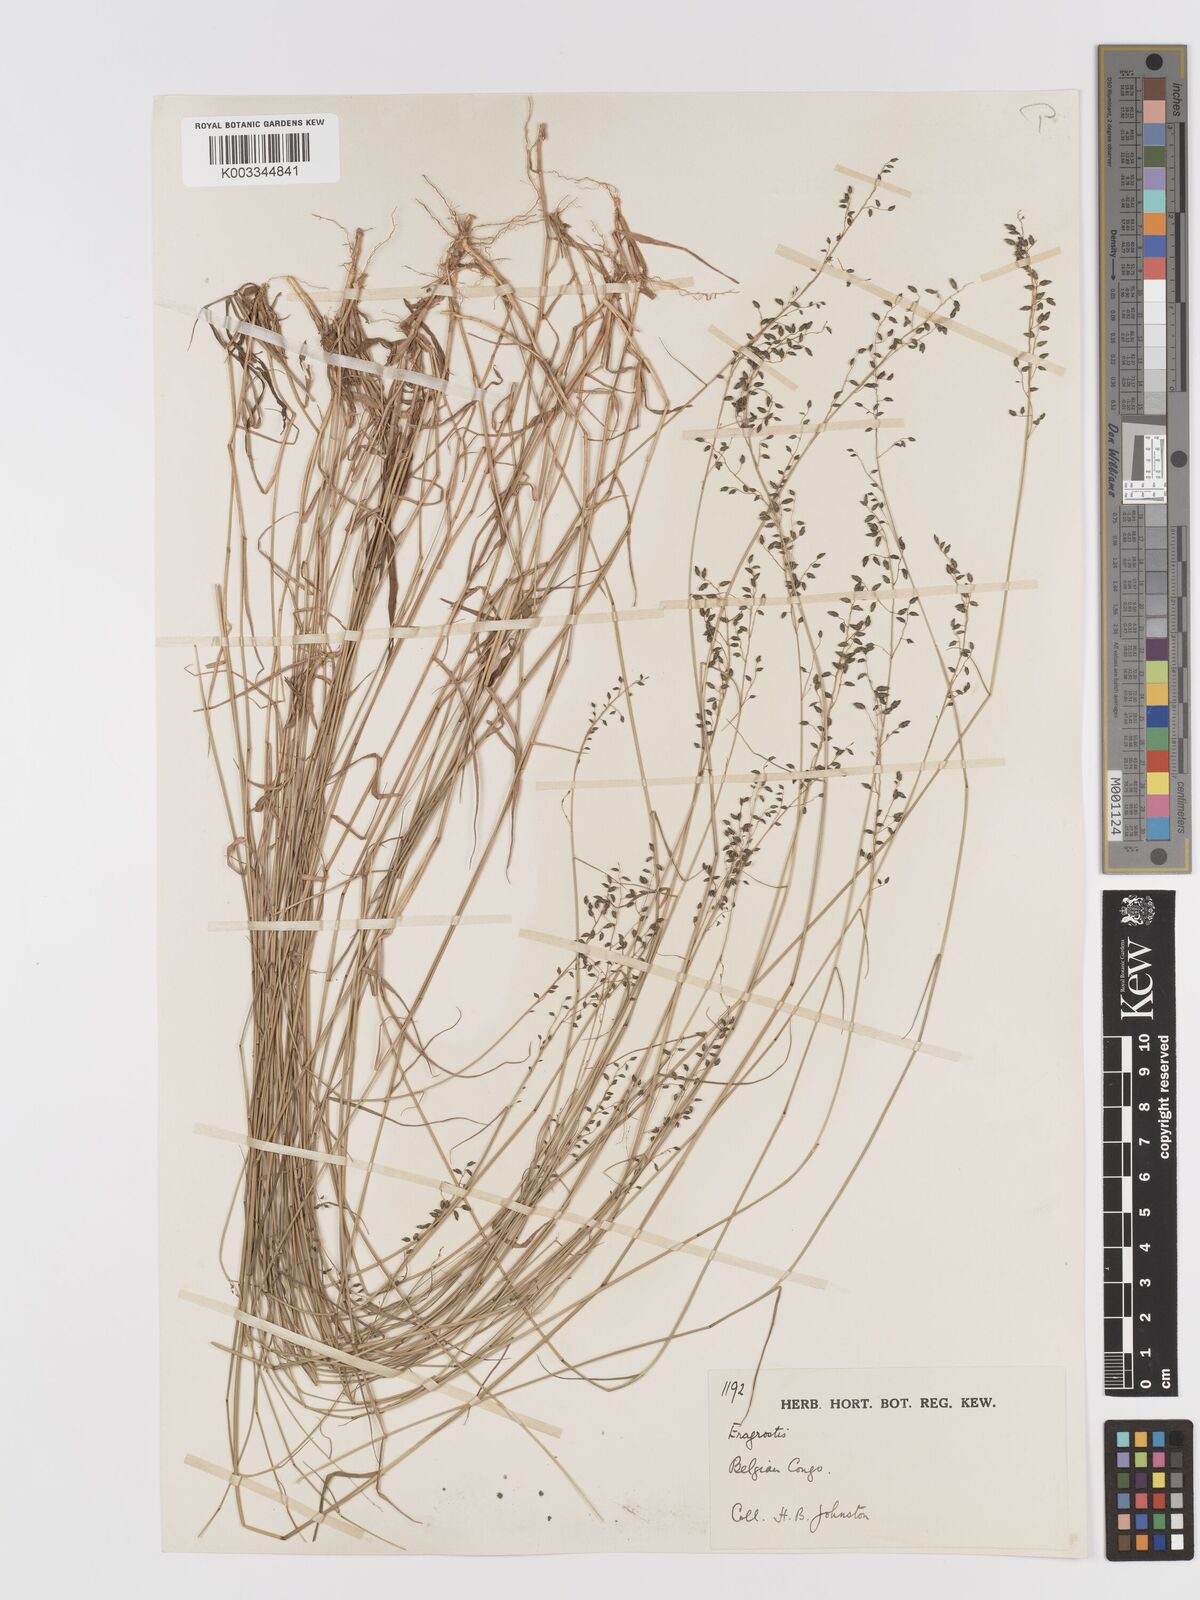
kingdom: Plantae
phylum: Tracheophyta
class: Liliopsida
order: Poales
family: Poaceae
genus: Eragrostis
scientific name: Eragrostis volkensii
